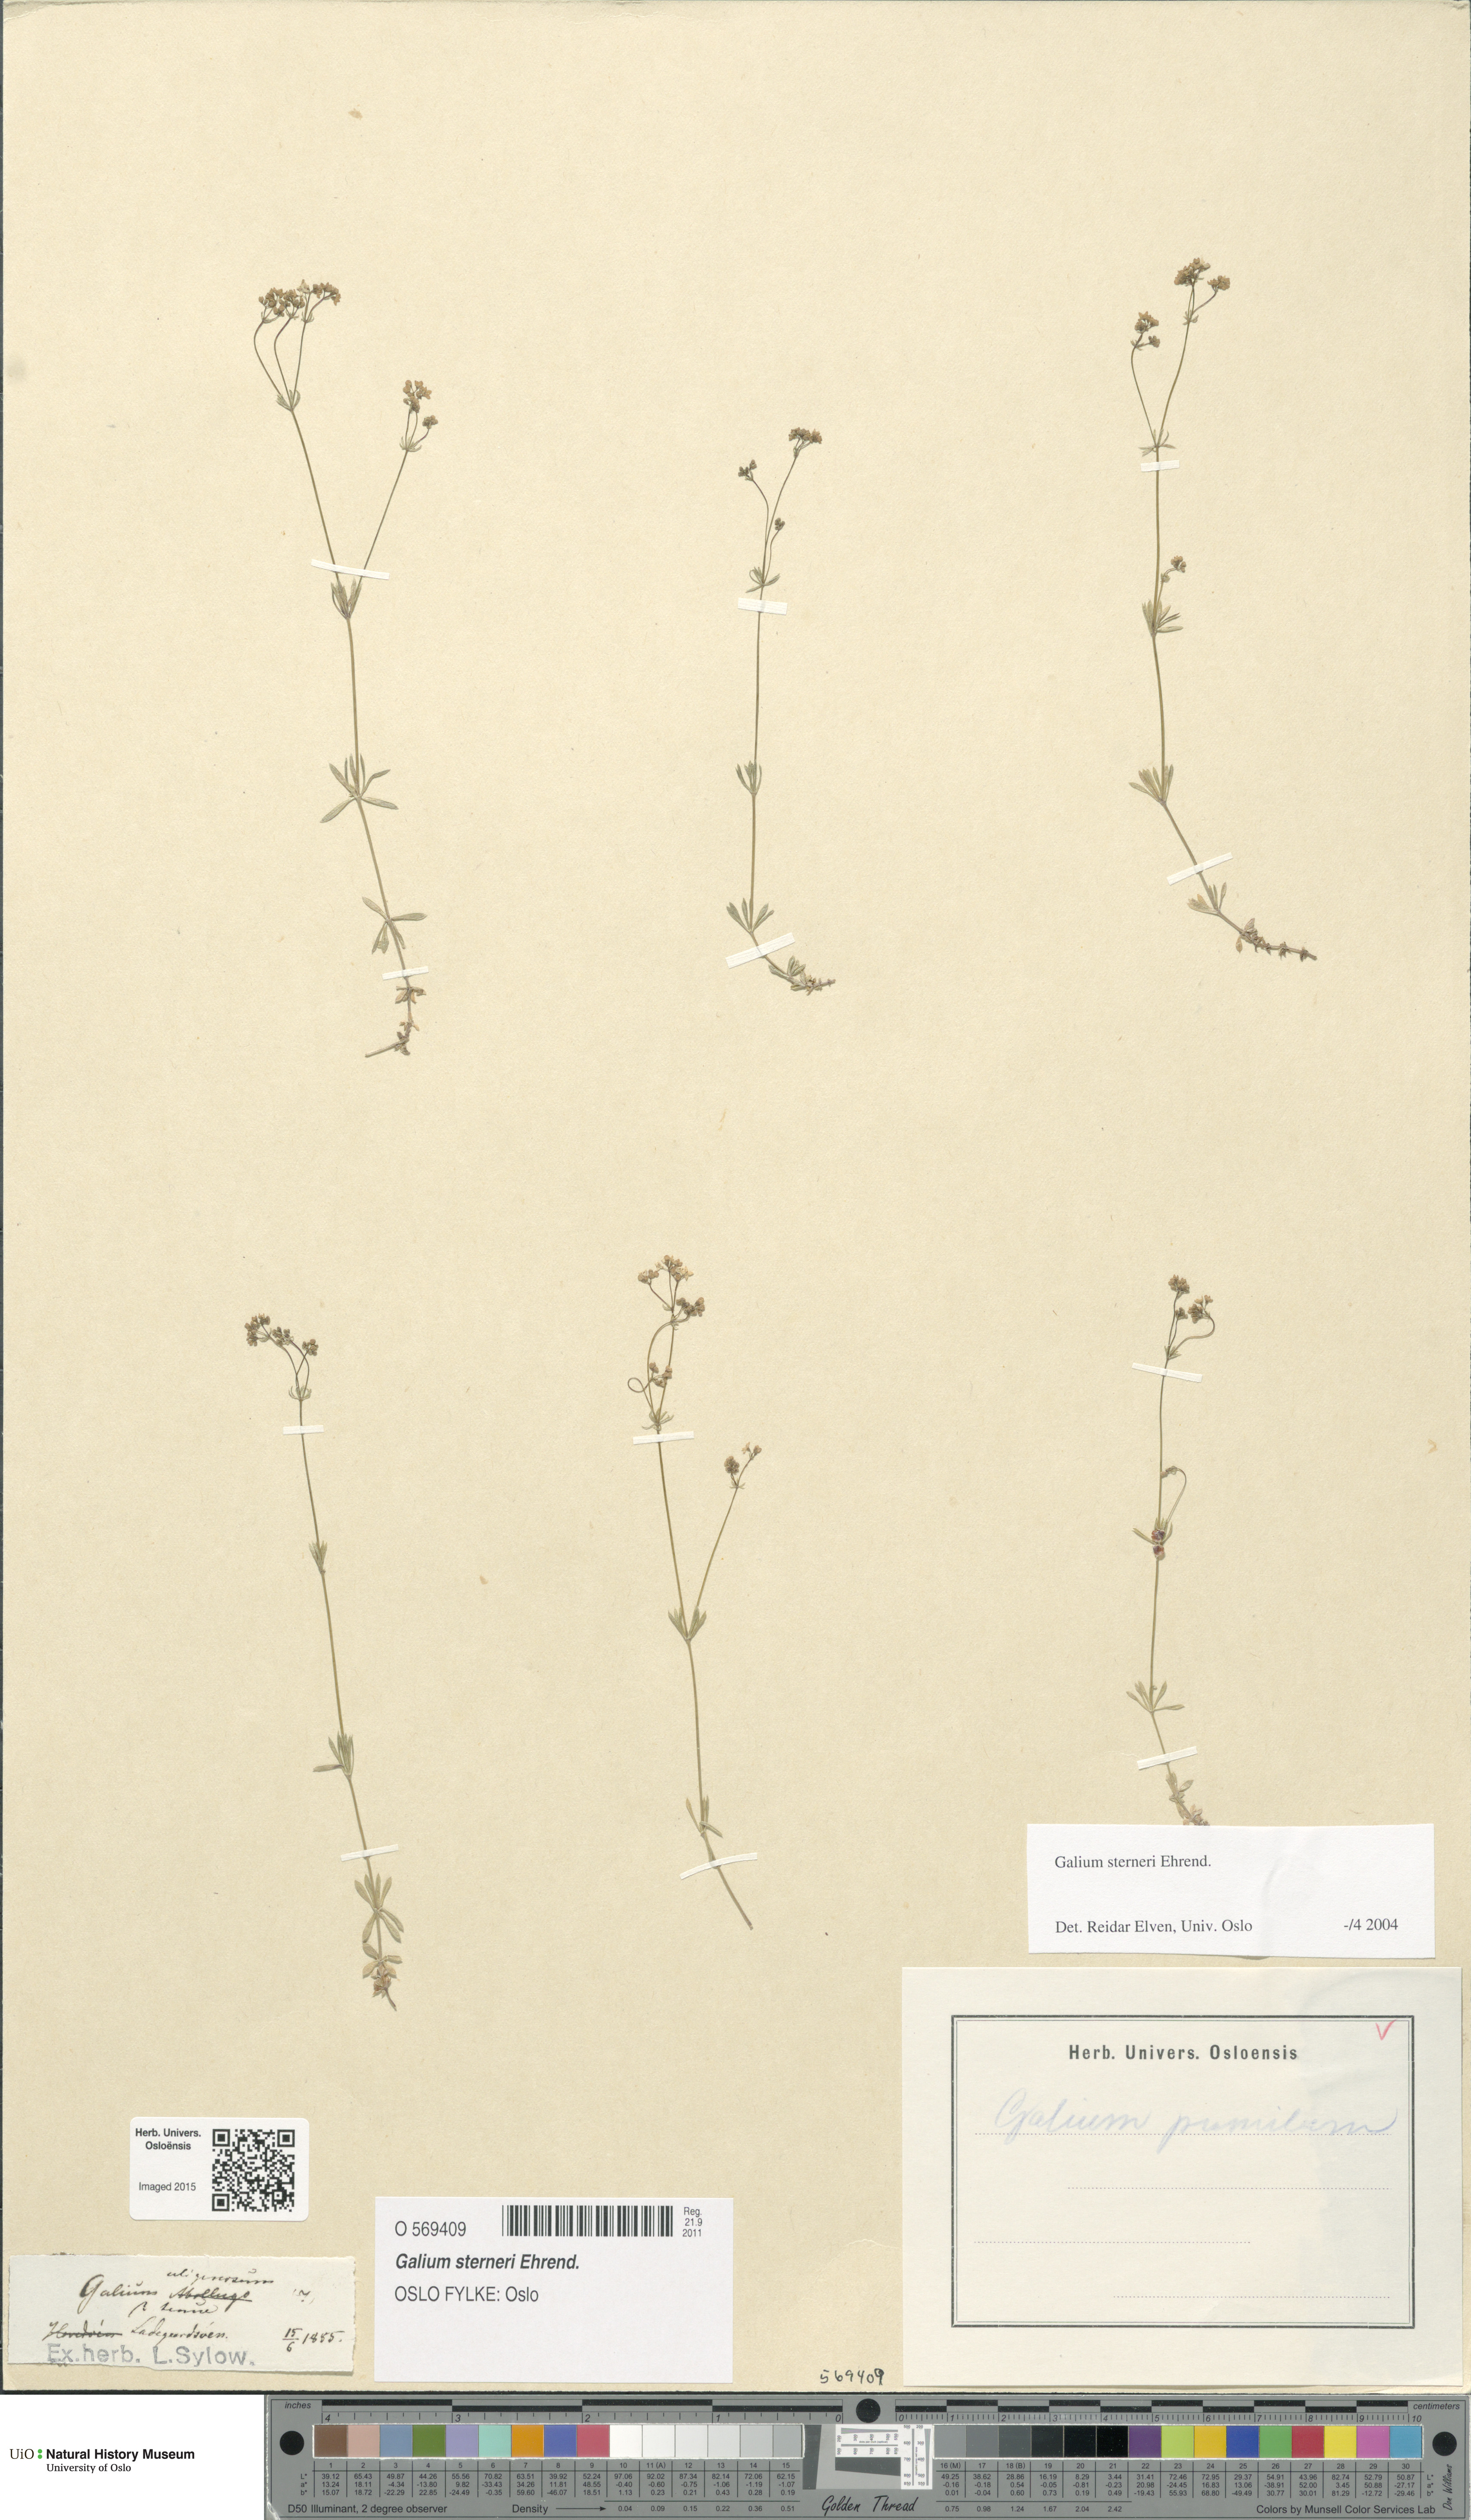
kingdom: Plantae
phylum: Tracheophyta
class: Magnoliopsida
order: Gentianales
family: Rubiaceae
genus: Galium
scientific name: Galium sterneri
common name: Limestone bedstraw
